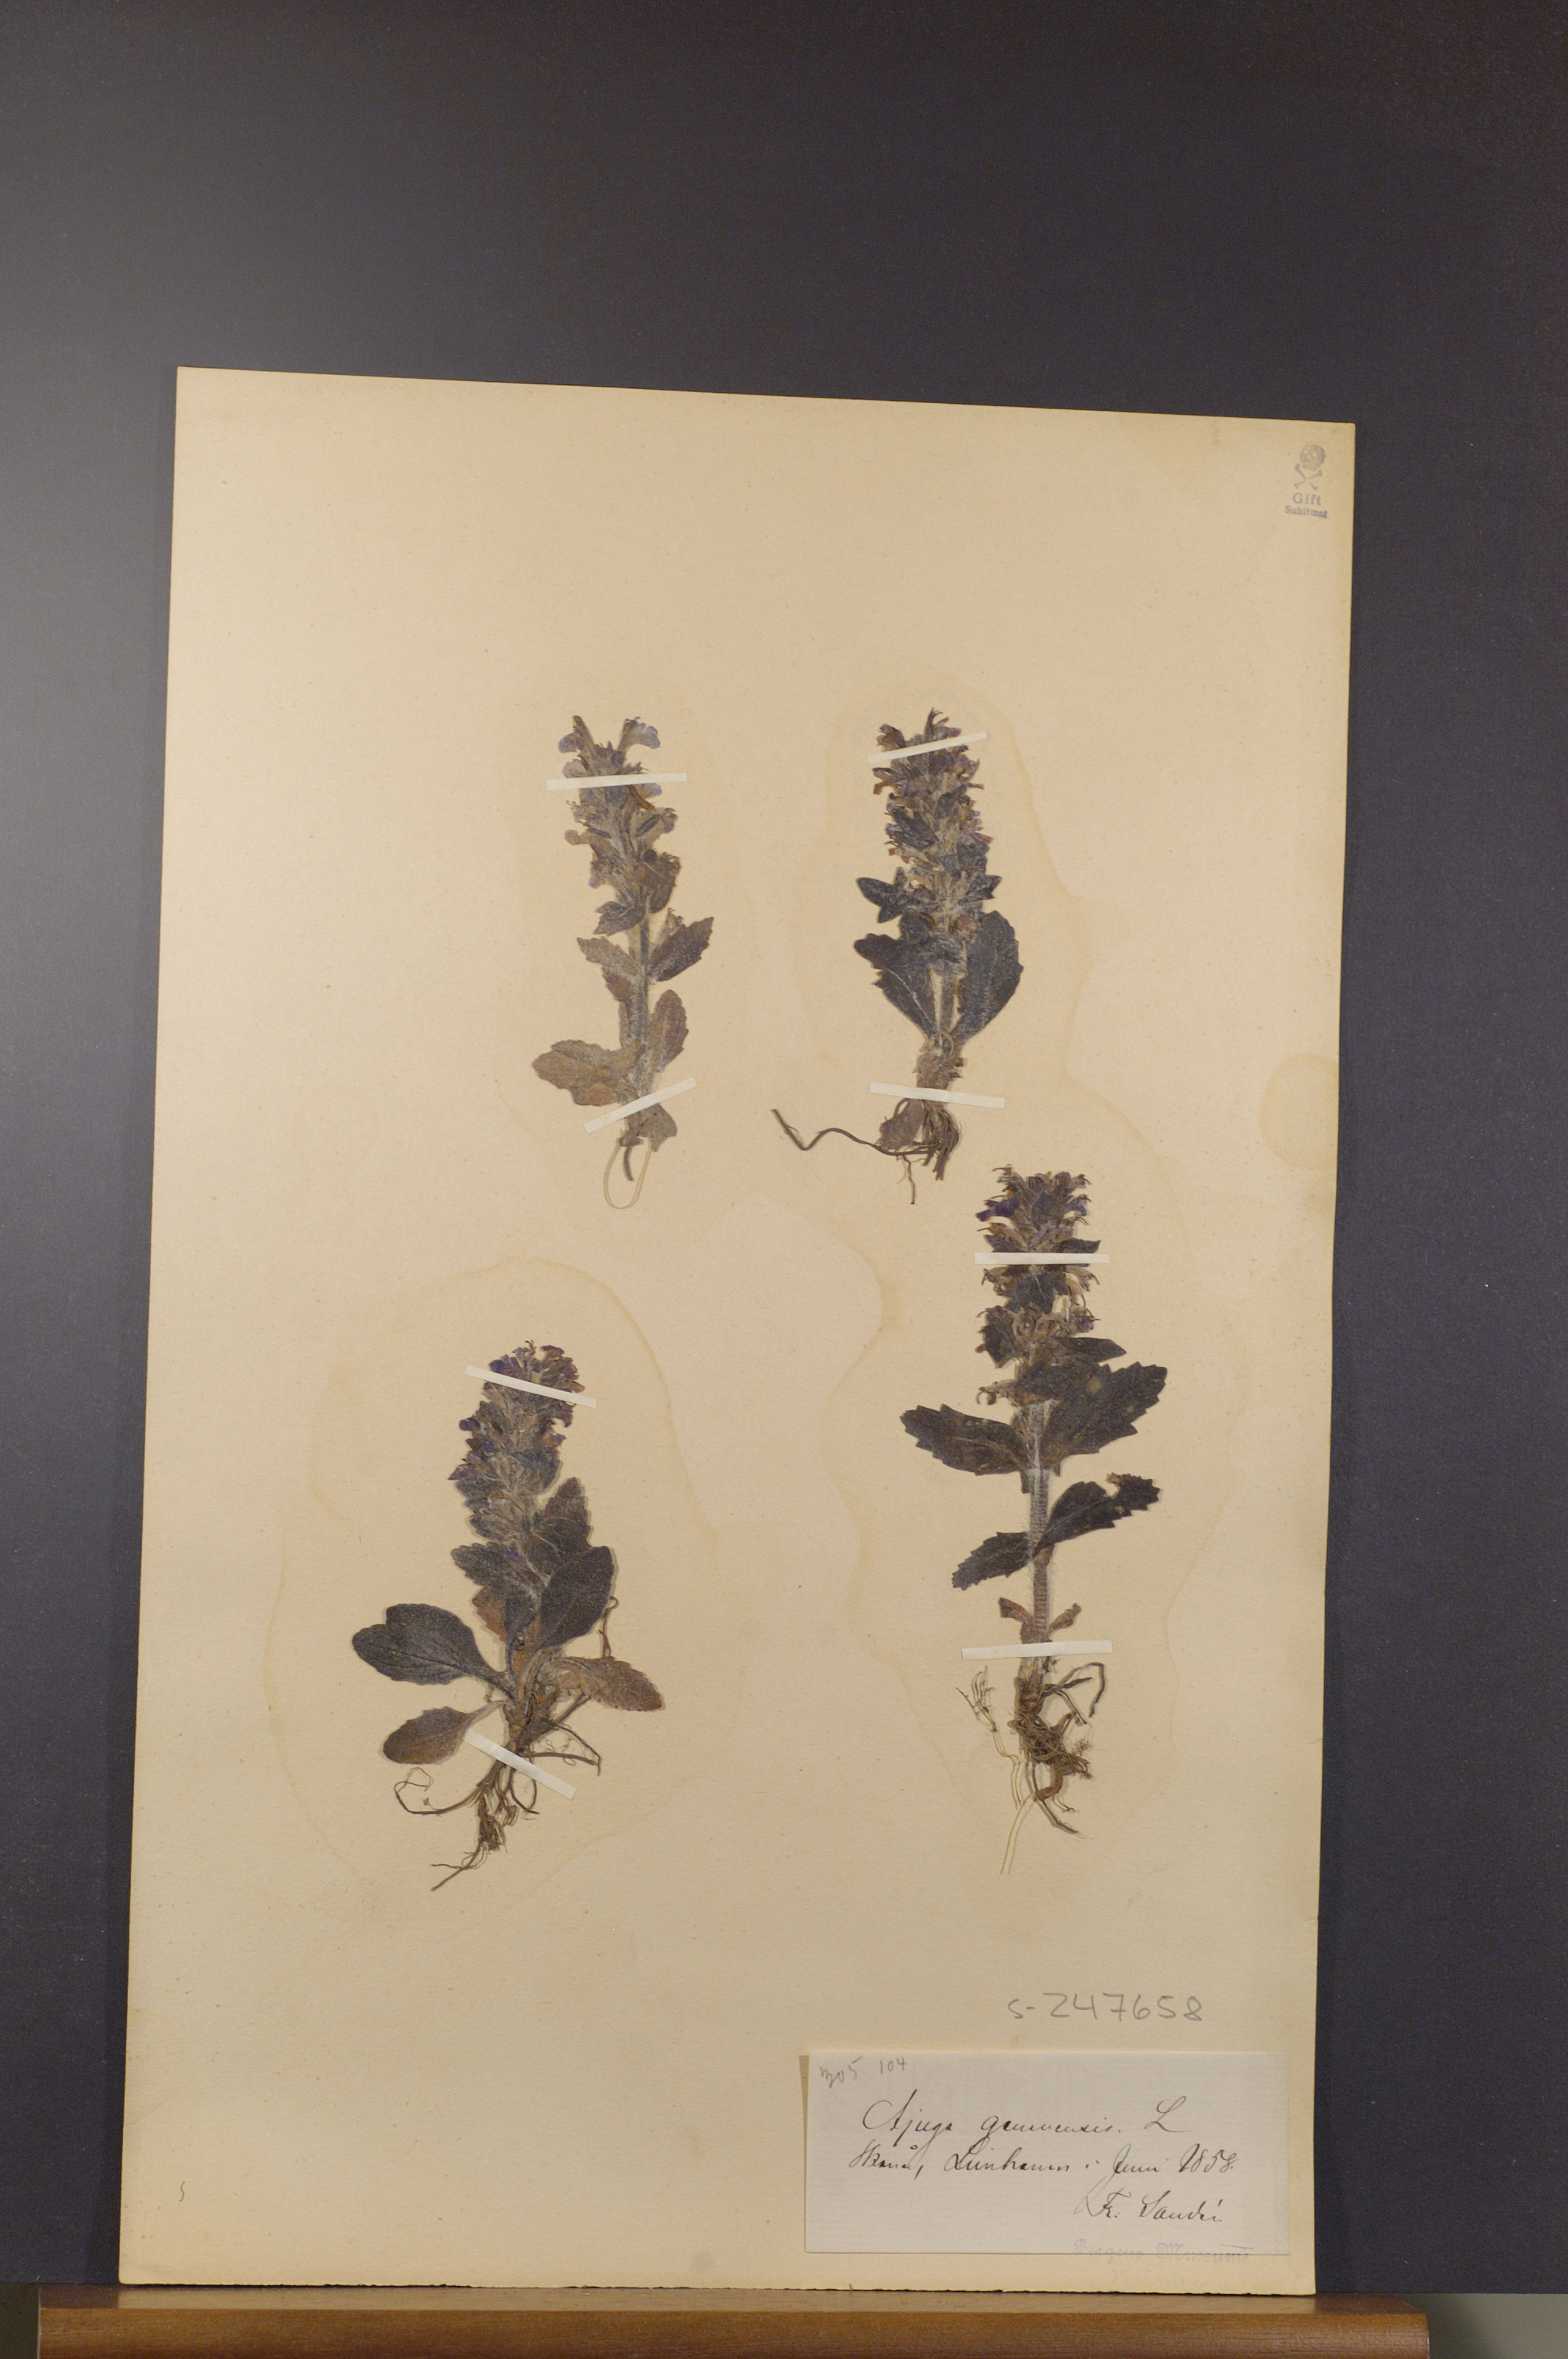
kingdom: Plantae
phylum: Tracheophyta
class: Magnoliopsida
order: Lamiales
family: Lamiaceae
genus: Ajuga
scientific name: Ajuga genevensis
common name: Blue bugle
